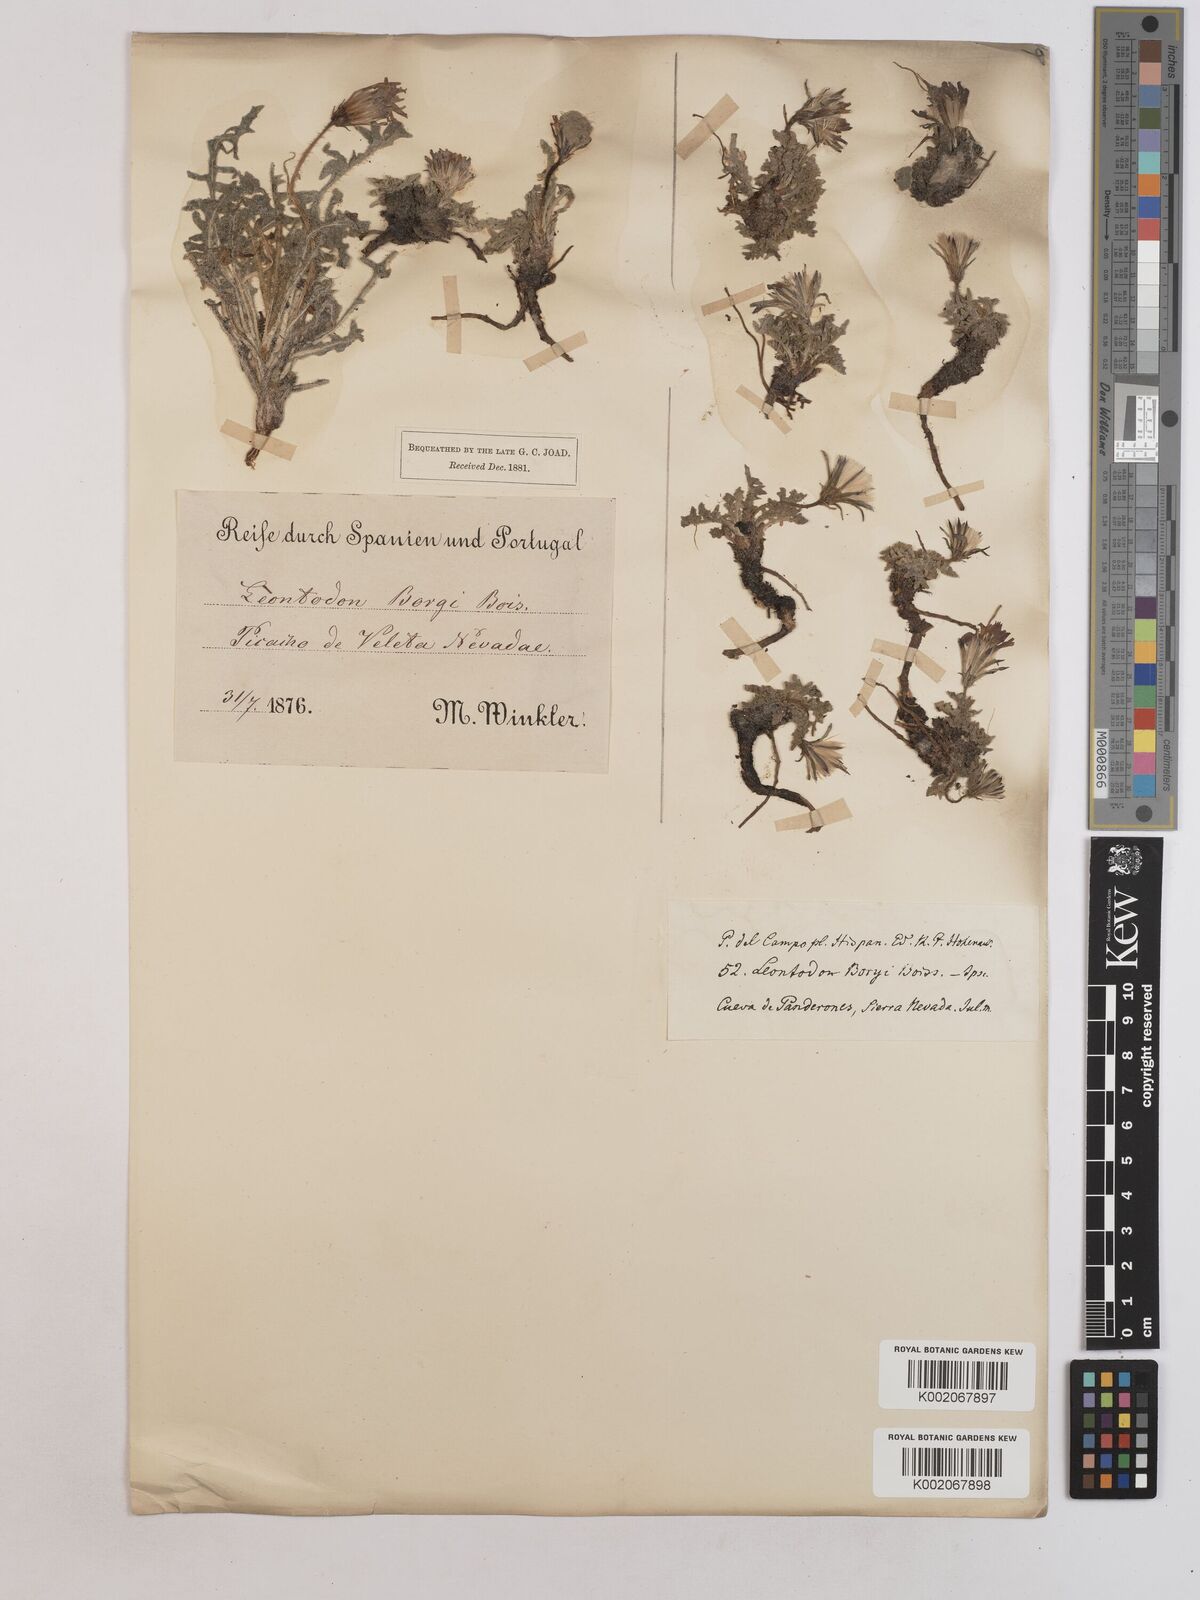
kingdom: Plantae
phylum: Tracheophyta
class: Magnoliopsida
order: Asterales
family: Asteraceae
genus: Leontodon
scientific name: Leontodon boryi
